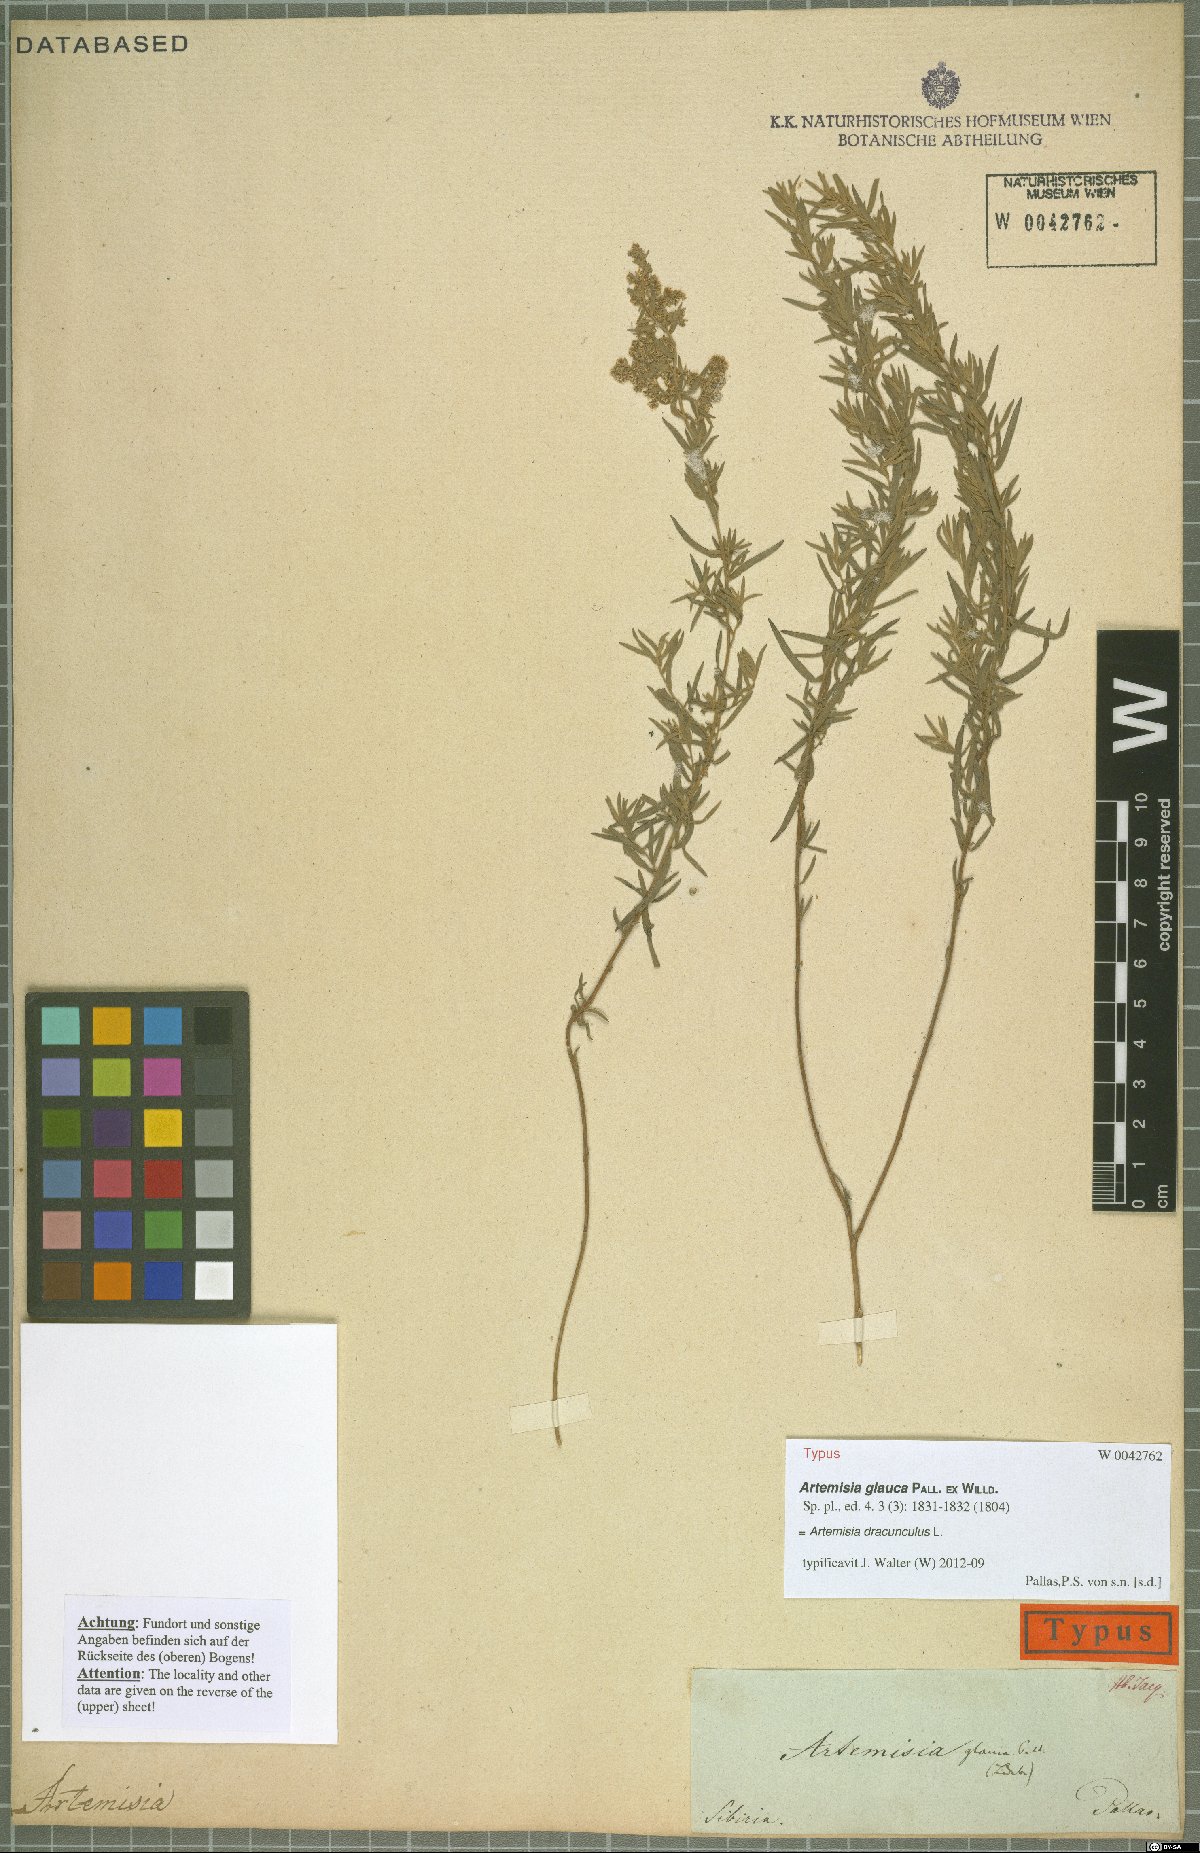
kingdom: Plantae
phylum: Tracheophyta
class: Magnoliopsida
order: Asterales
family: Asteraceae
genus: Artemisia
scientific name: Artemisia dracunculus
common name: Tarragon
